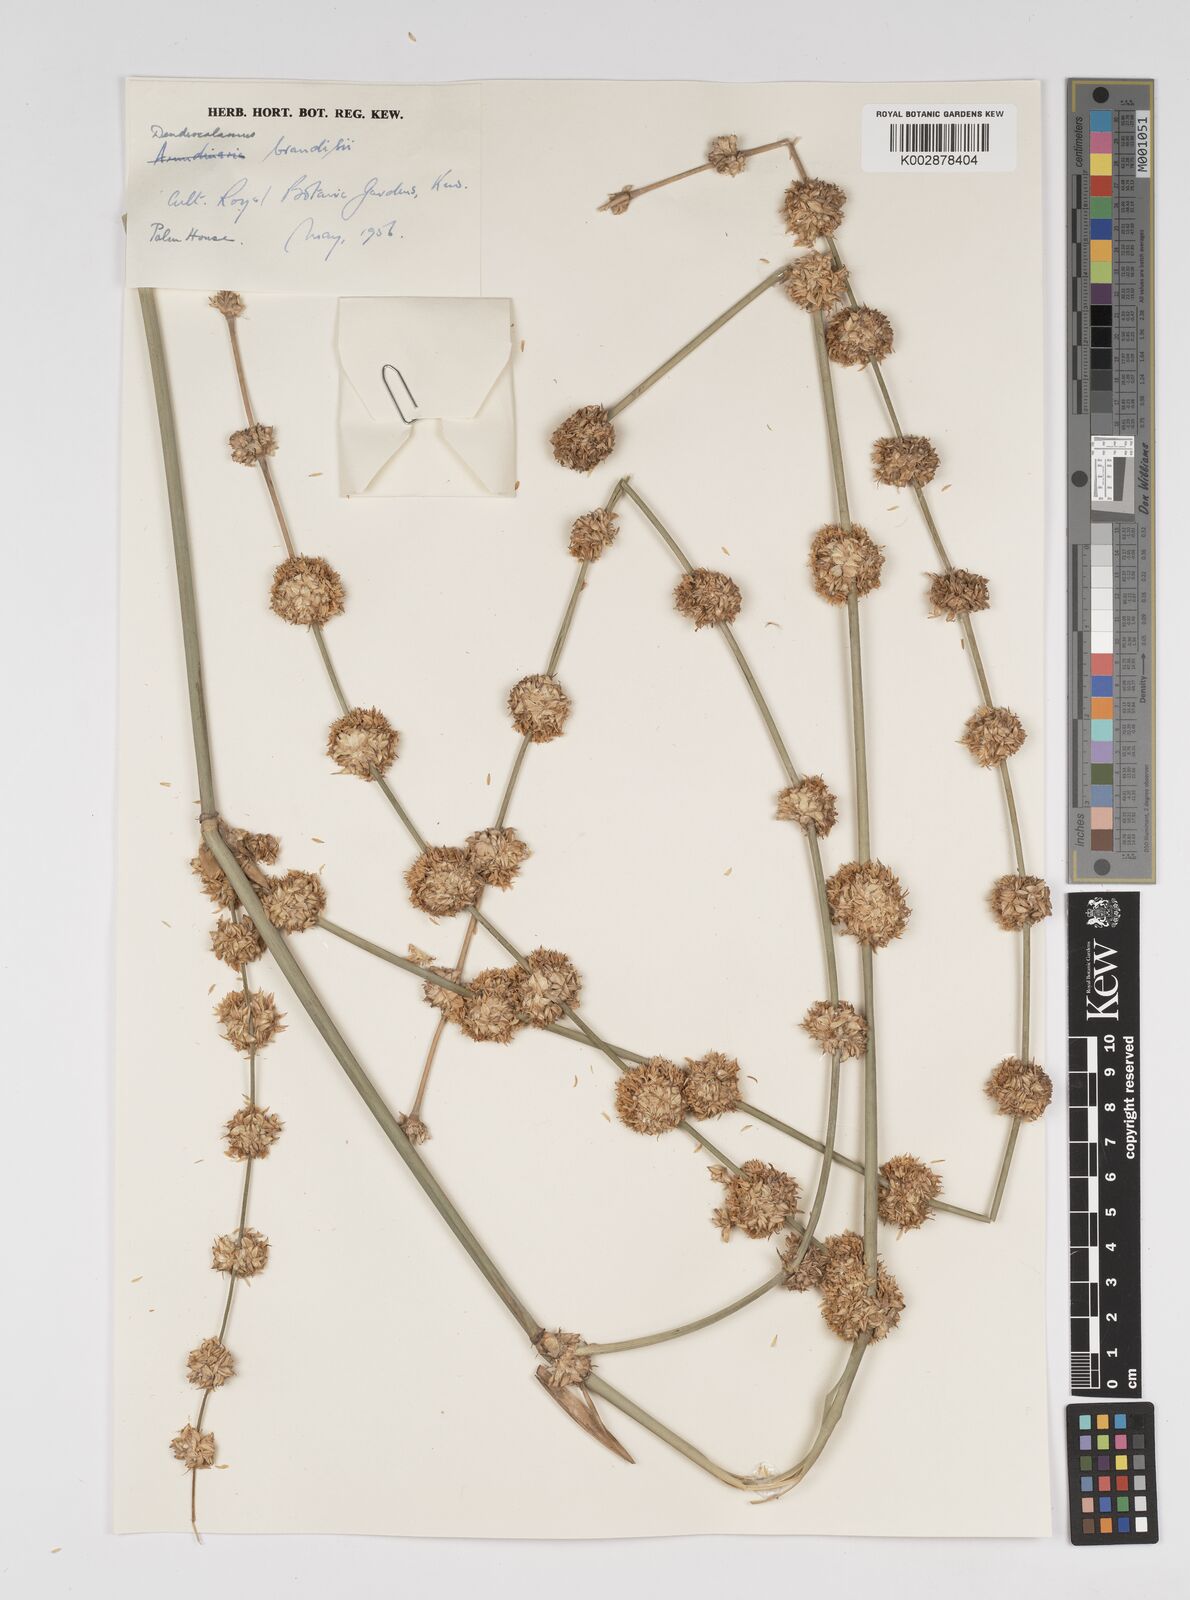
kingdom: Plantae
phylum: Tracheophyta
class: Liliopsida
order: Poales
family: Poaceae
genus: Dendrocalamus
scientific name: Dendrocalamus brandisii
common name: Velvetleaf bamboo
